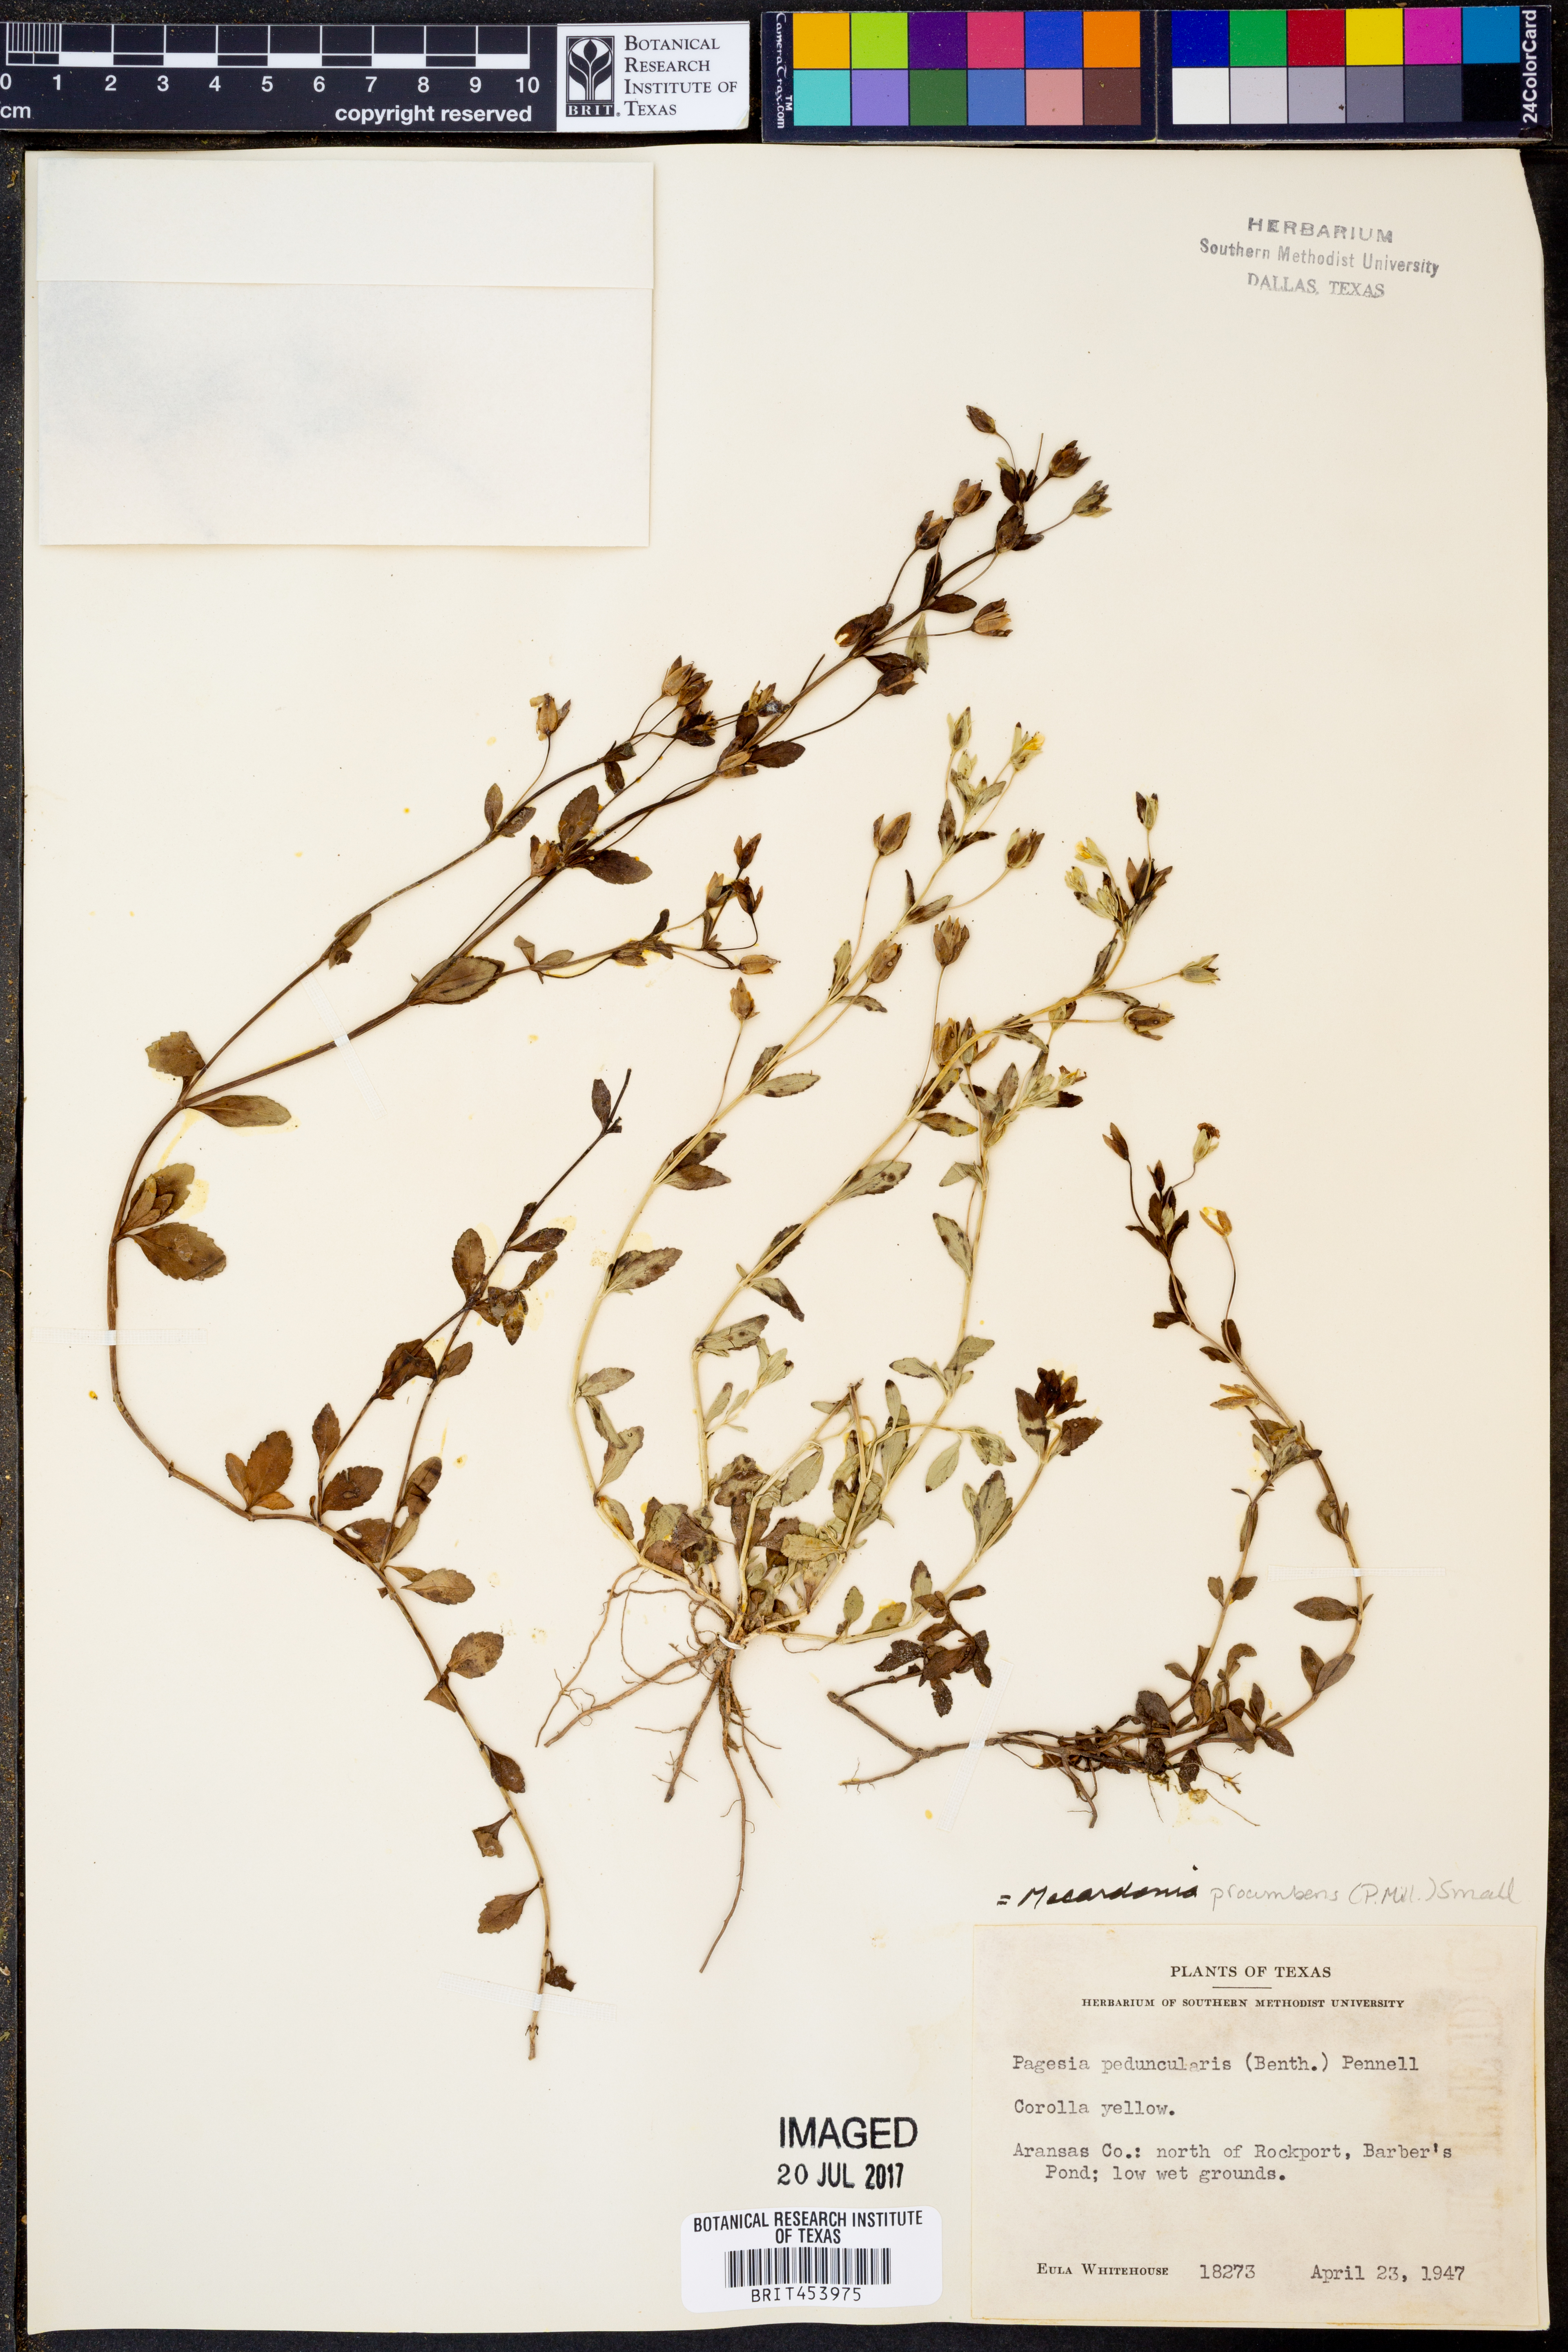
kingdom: Plantae
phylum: Tracheophyta
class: Magnoliopsida
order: Lamiales
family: Plantaginaceae
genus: Mecardonia
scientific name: Mecardonia procumbens
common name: Baby jump-up
